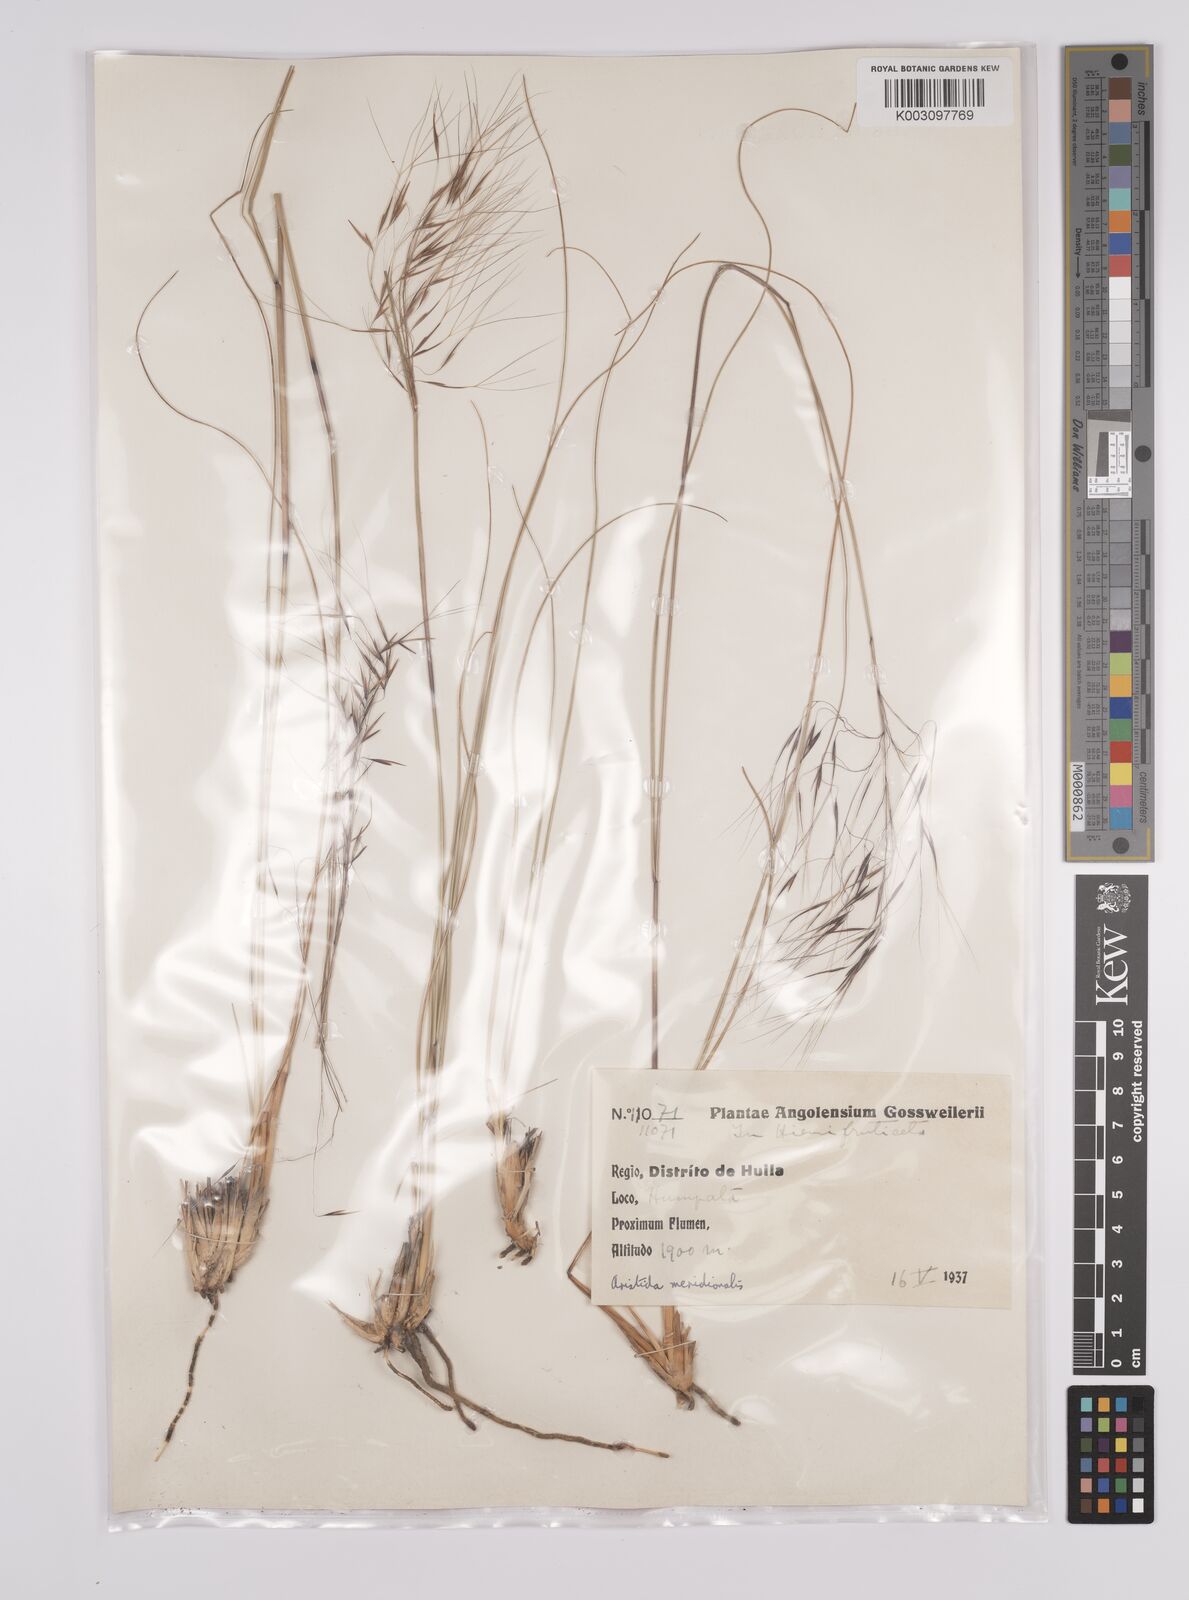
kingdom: Plantae
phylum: Tracheophyta
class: Liliopsida
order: Poales
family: Poaceae
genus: Aristida
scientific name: Aristida meridionalis
